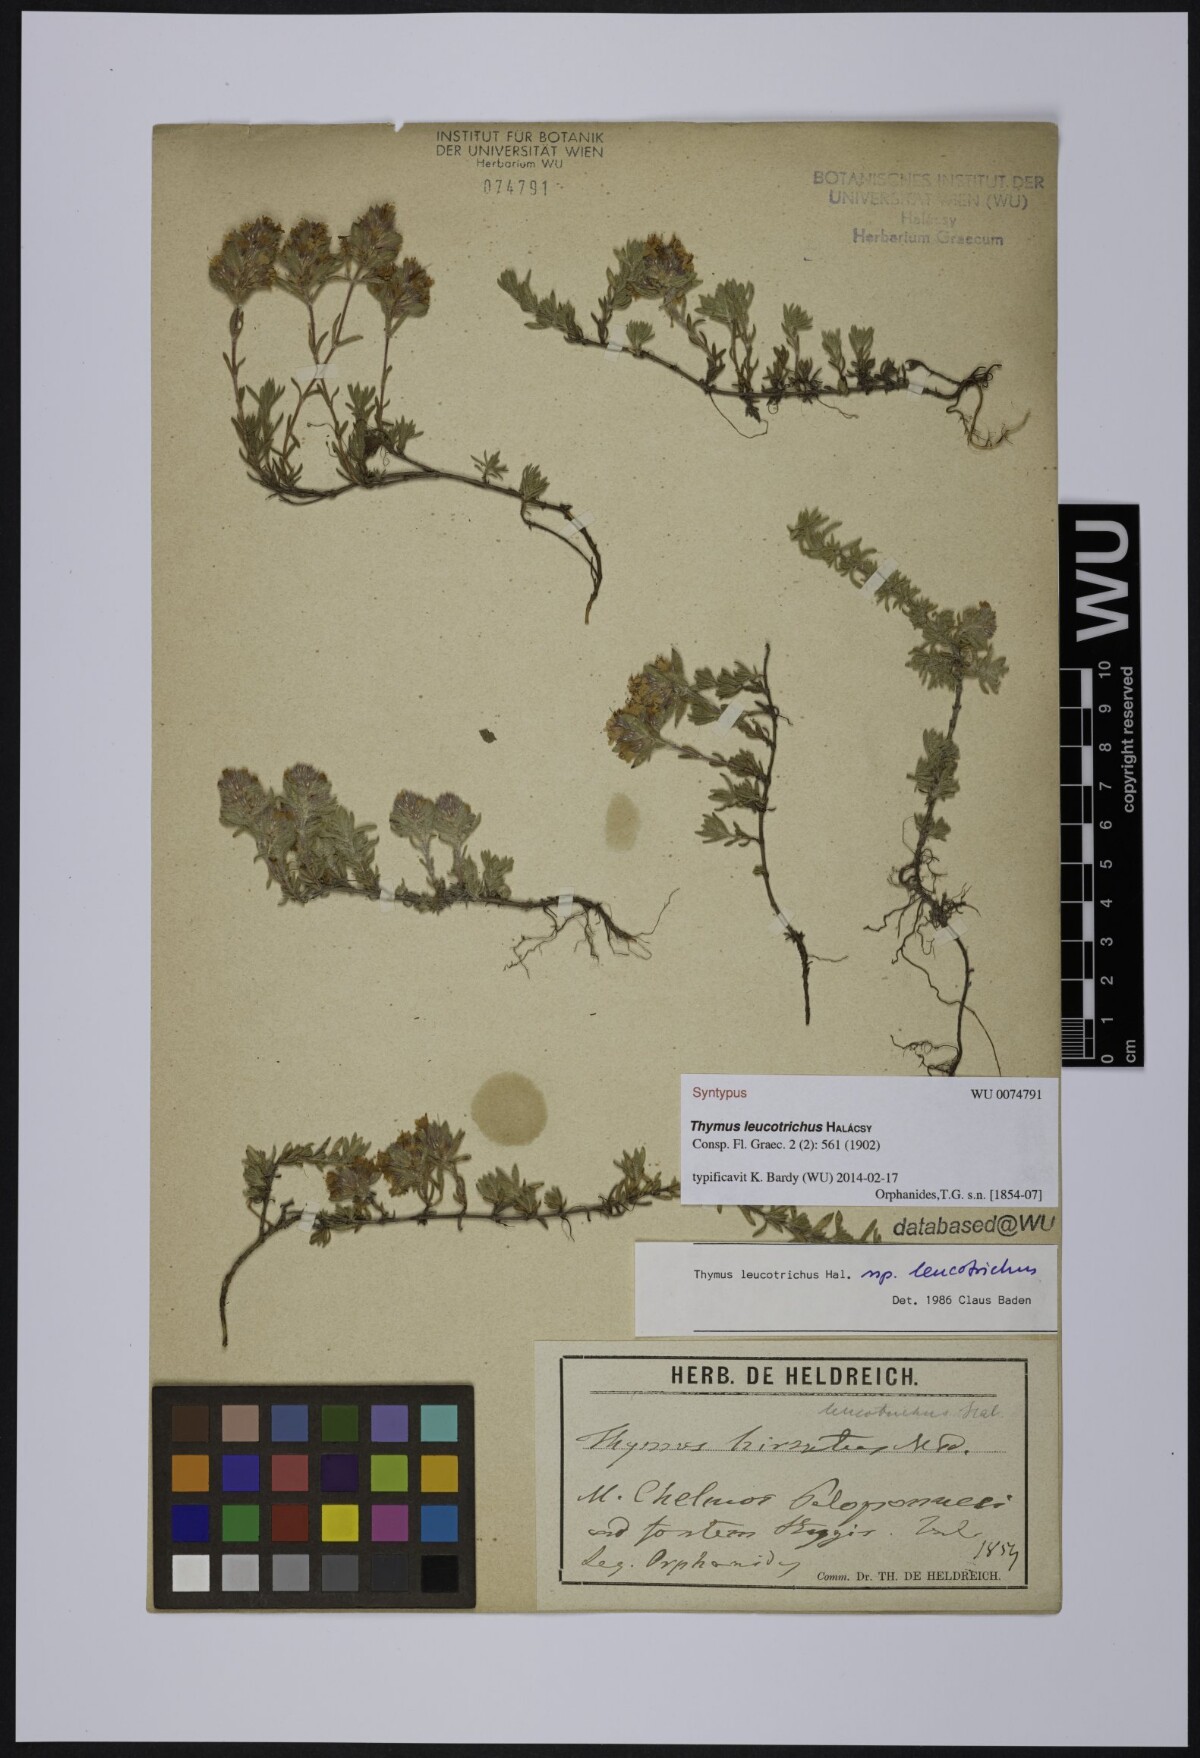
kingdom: Plantae
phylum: Tracheophyta
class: Magnoliopsida
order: Lamiales
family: Lamiaceae
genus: Thymus
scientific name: Thymus leucotrichus
